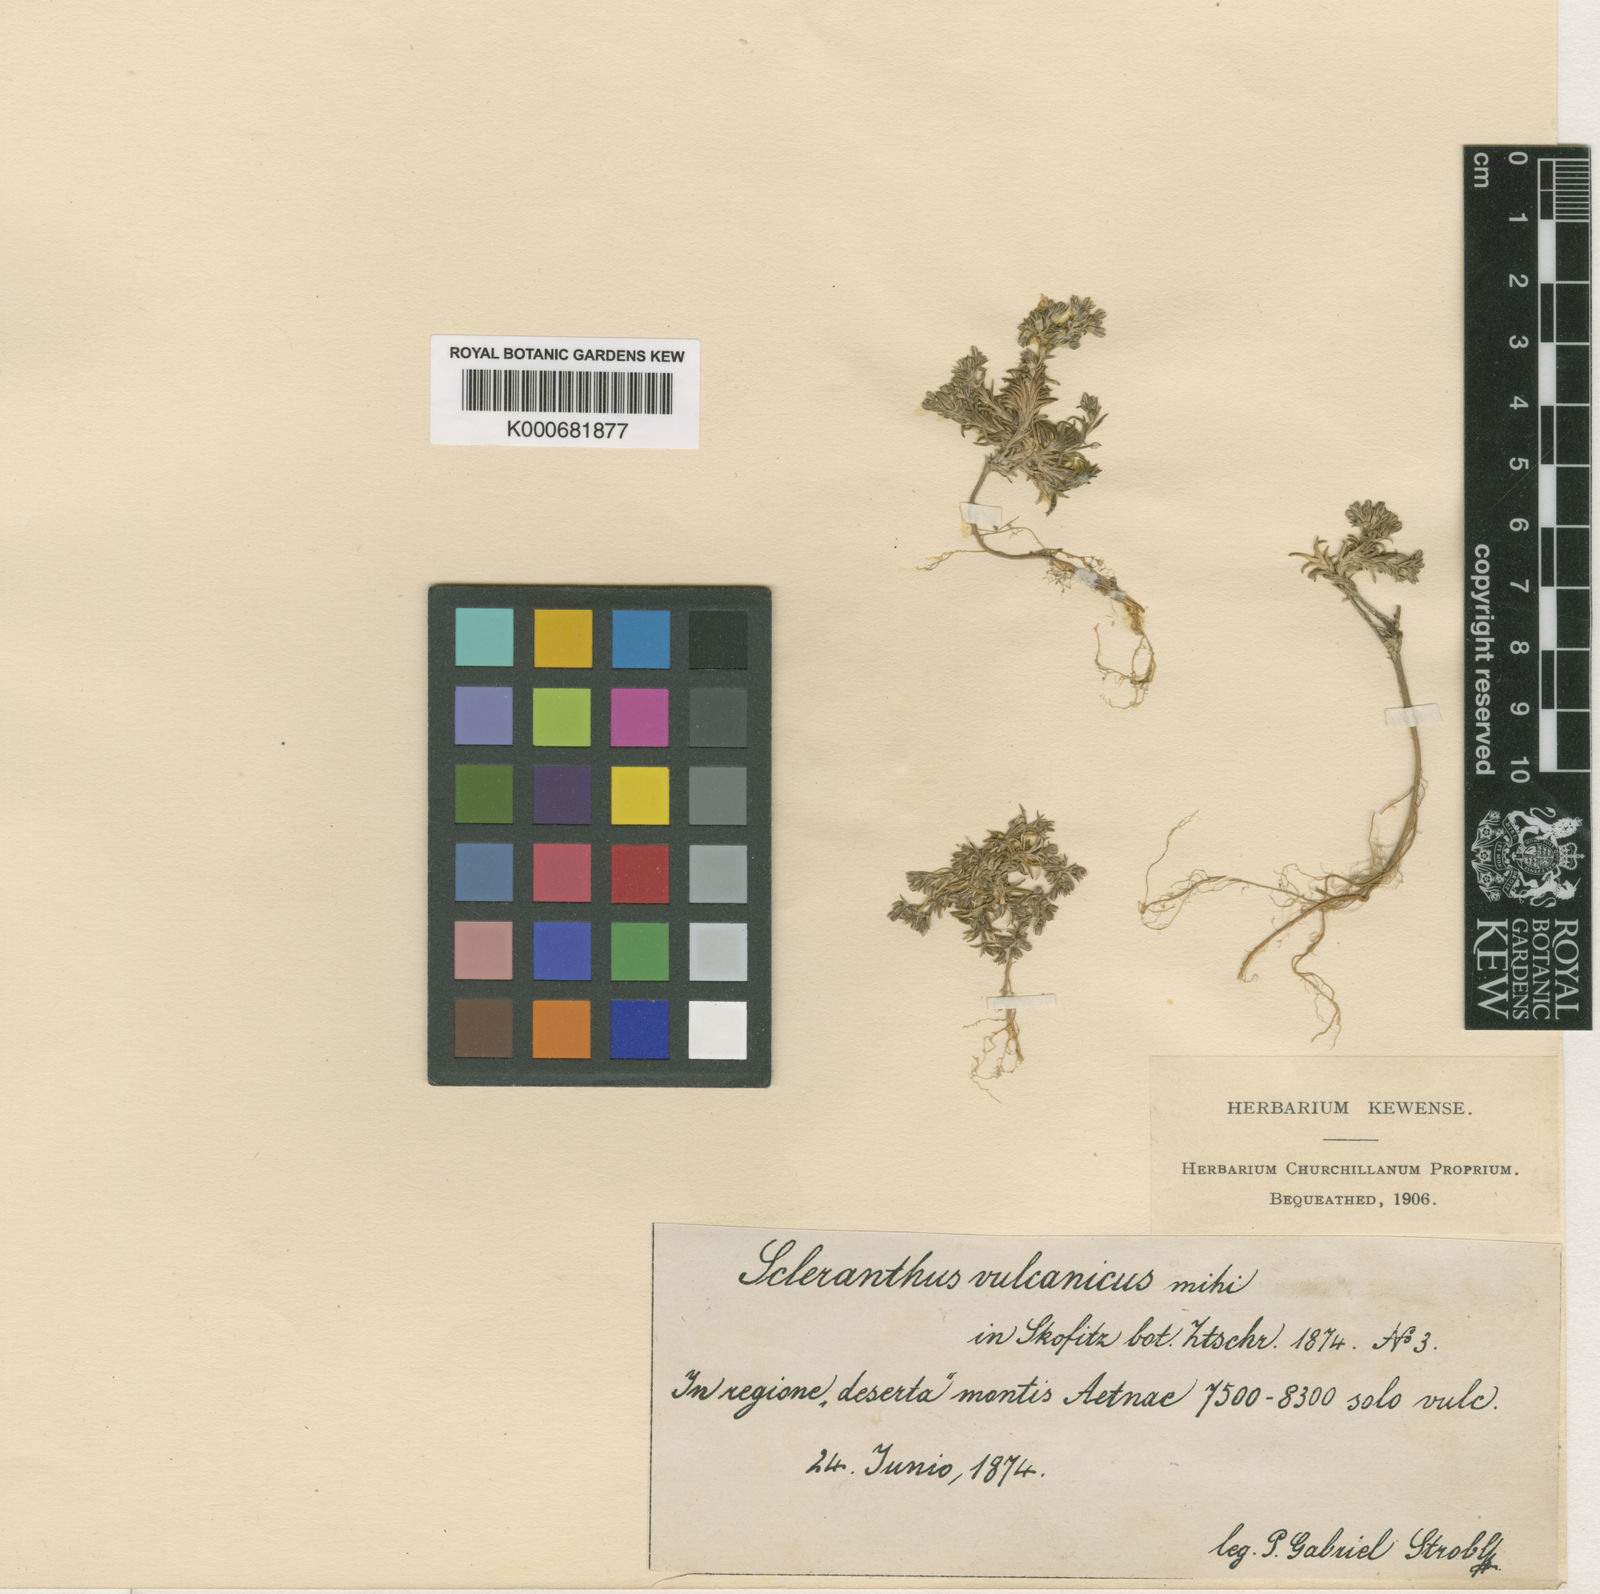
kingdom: Plantae
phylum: Tracheophyta
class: Magnoliopsida
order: Caryophyllales
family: Caryophyllaceae
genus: Scleranthus
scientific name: Scleranthus perennis
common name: Perennial knawel
